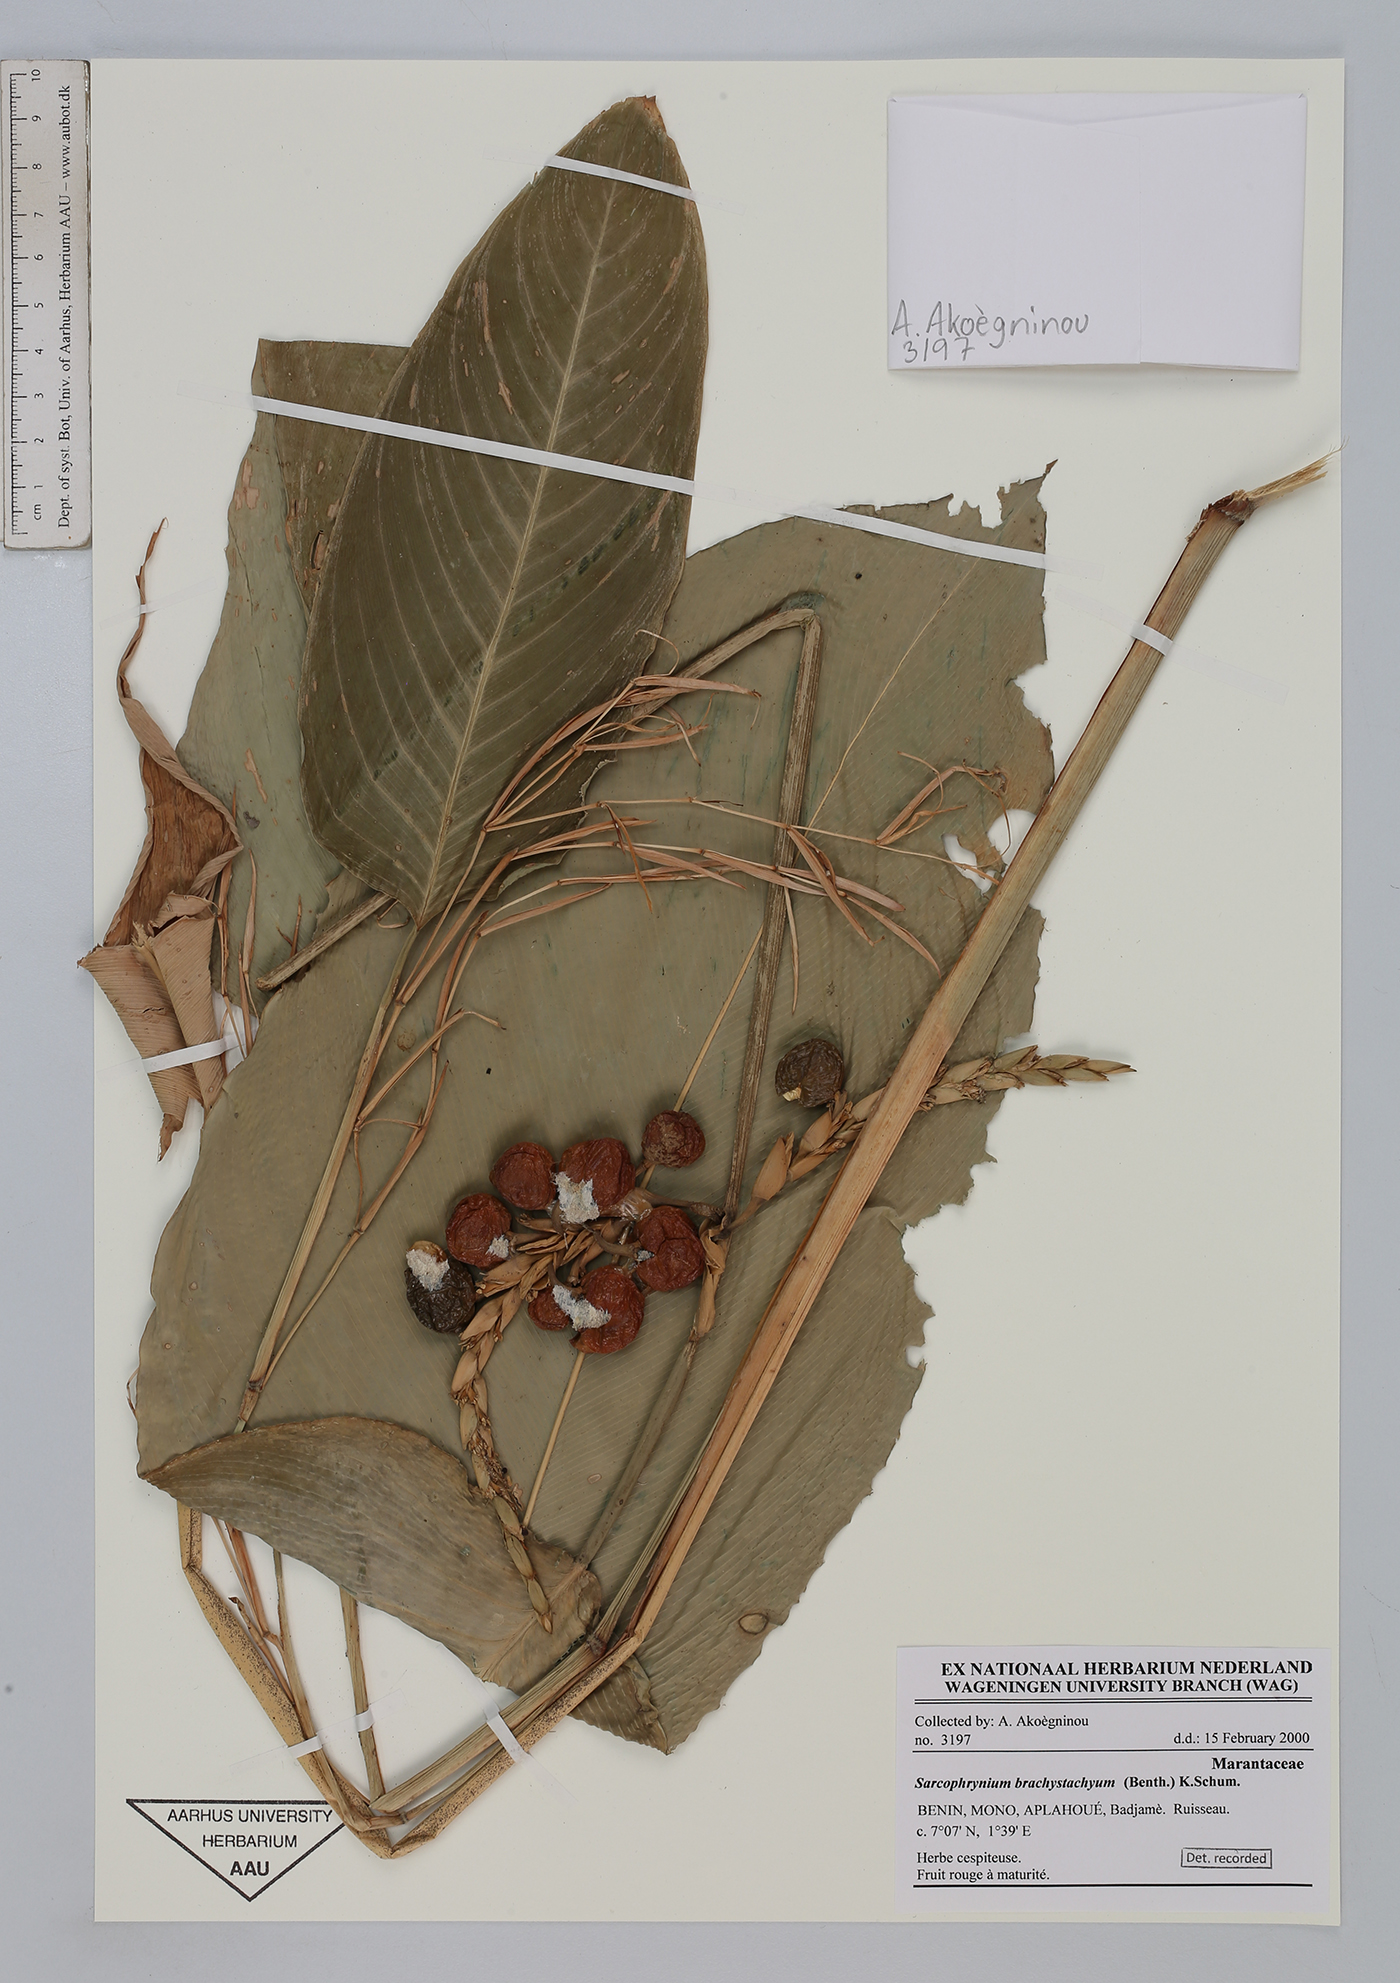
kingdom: Plantae
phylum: Tracheophyta
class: Liliopsida
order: Zingiberales
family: Marantaceae
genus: Sarcophrynium
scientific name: Sarcophrynium brachystachyum
